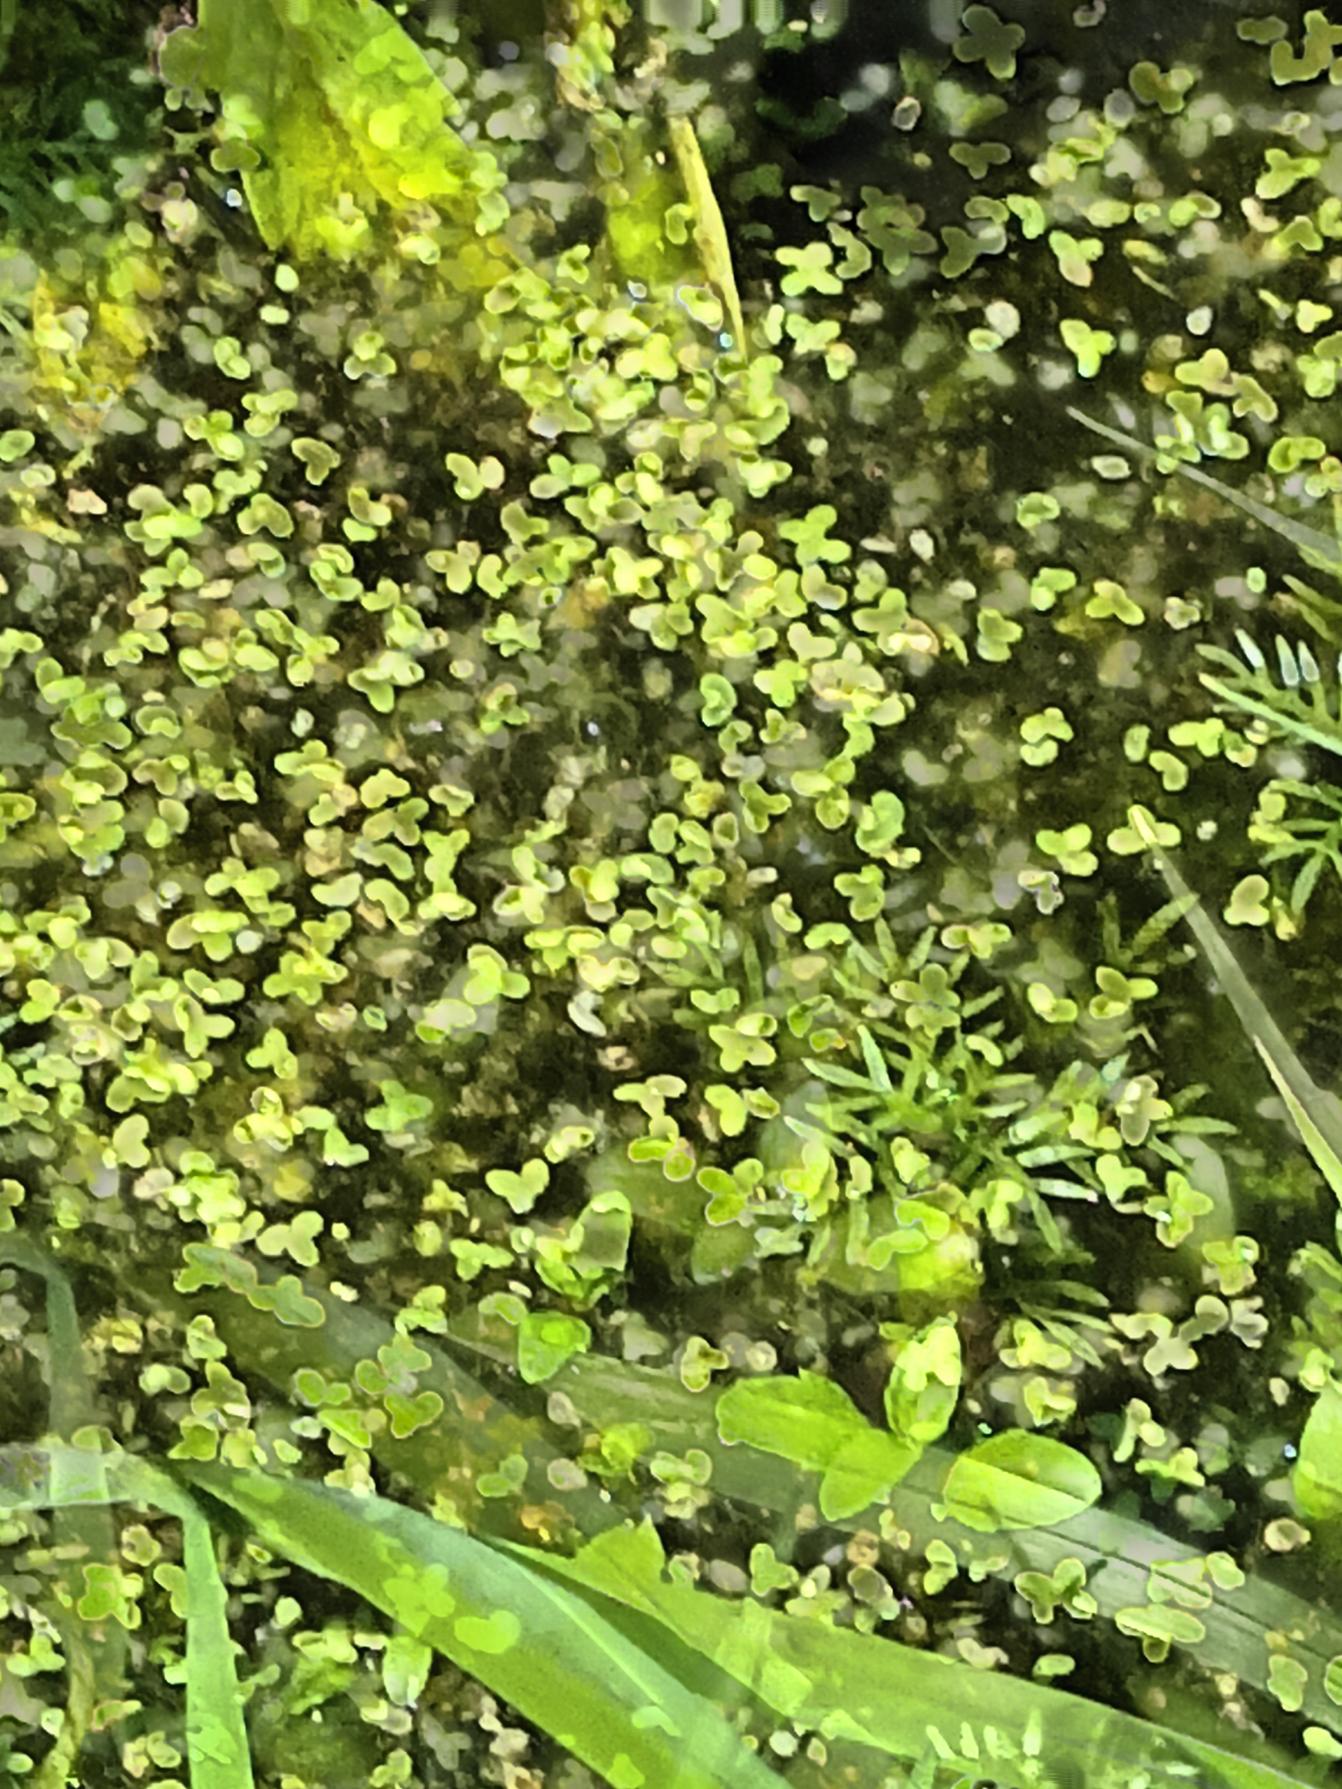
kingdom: Plantae
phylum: Tracheophyta
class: Liliopsida
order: Alismatales
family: Araceae
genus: Lemna
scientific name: Lemna minor
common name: Liden andemad
